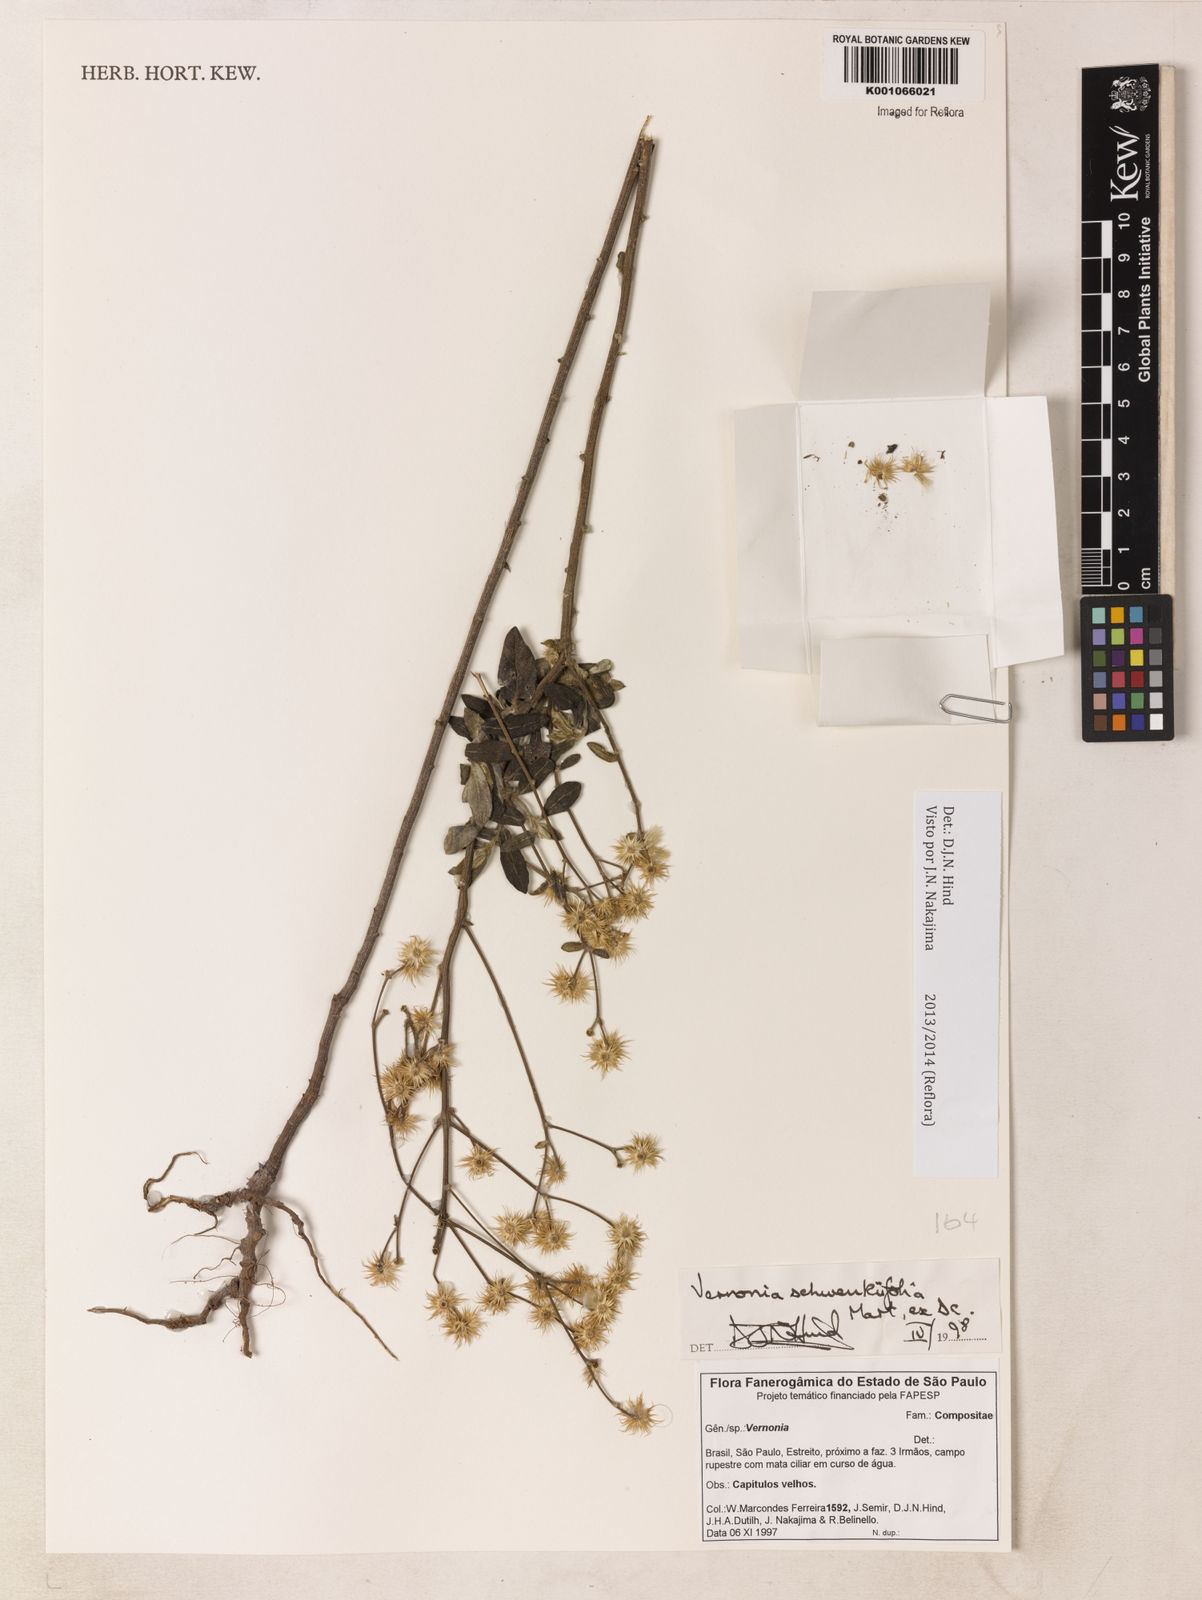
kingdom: Plantae
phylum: Tracheophyta
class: Magnoliopsida
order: Asterales
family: Asteraceae
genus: Vernonia
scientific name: Vernonia
